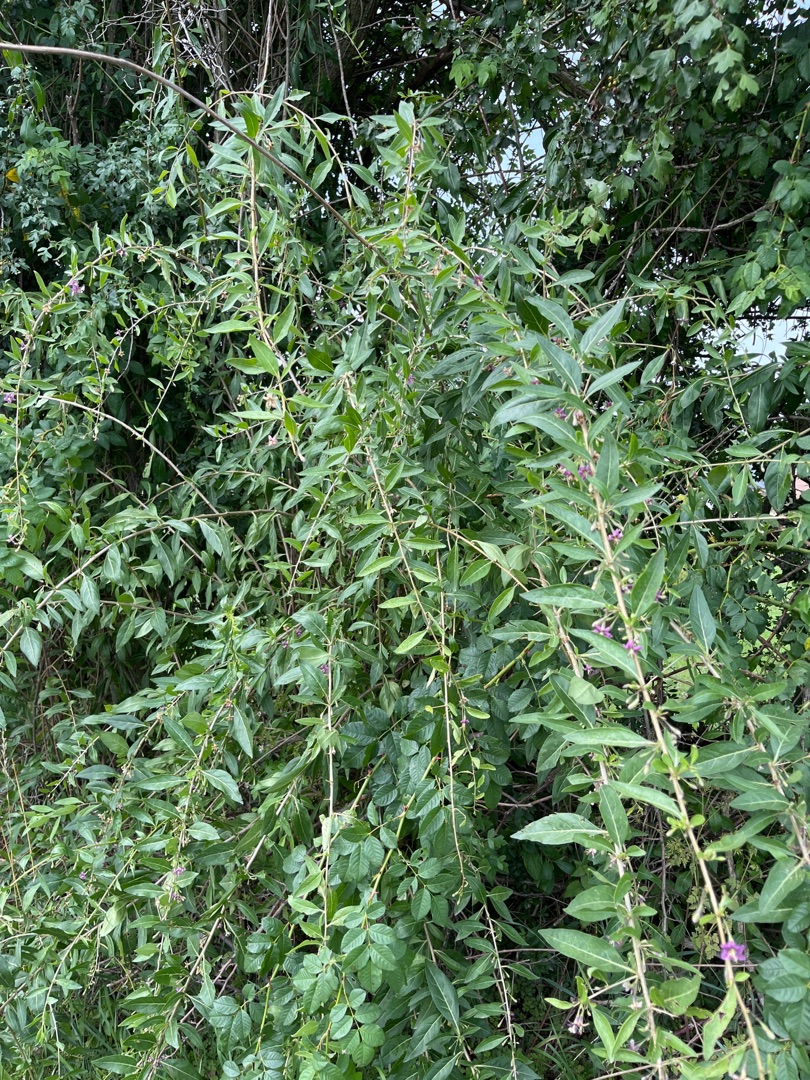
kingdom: Plantae
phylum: Tracheophyta
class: Magnoliopsida
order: Solanales
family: Solanaceae
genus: Lycium
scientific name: Lycium barbarum
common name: Bukketorn
